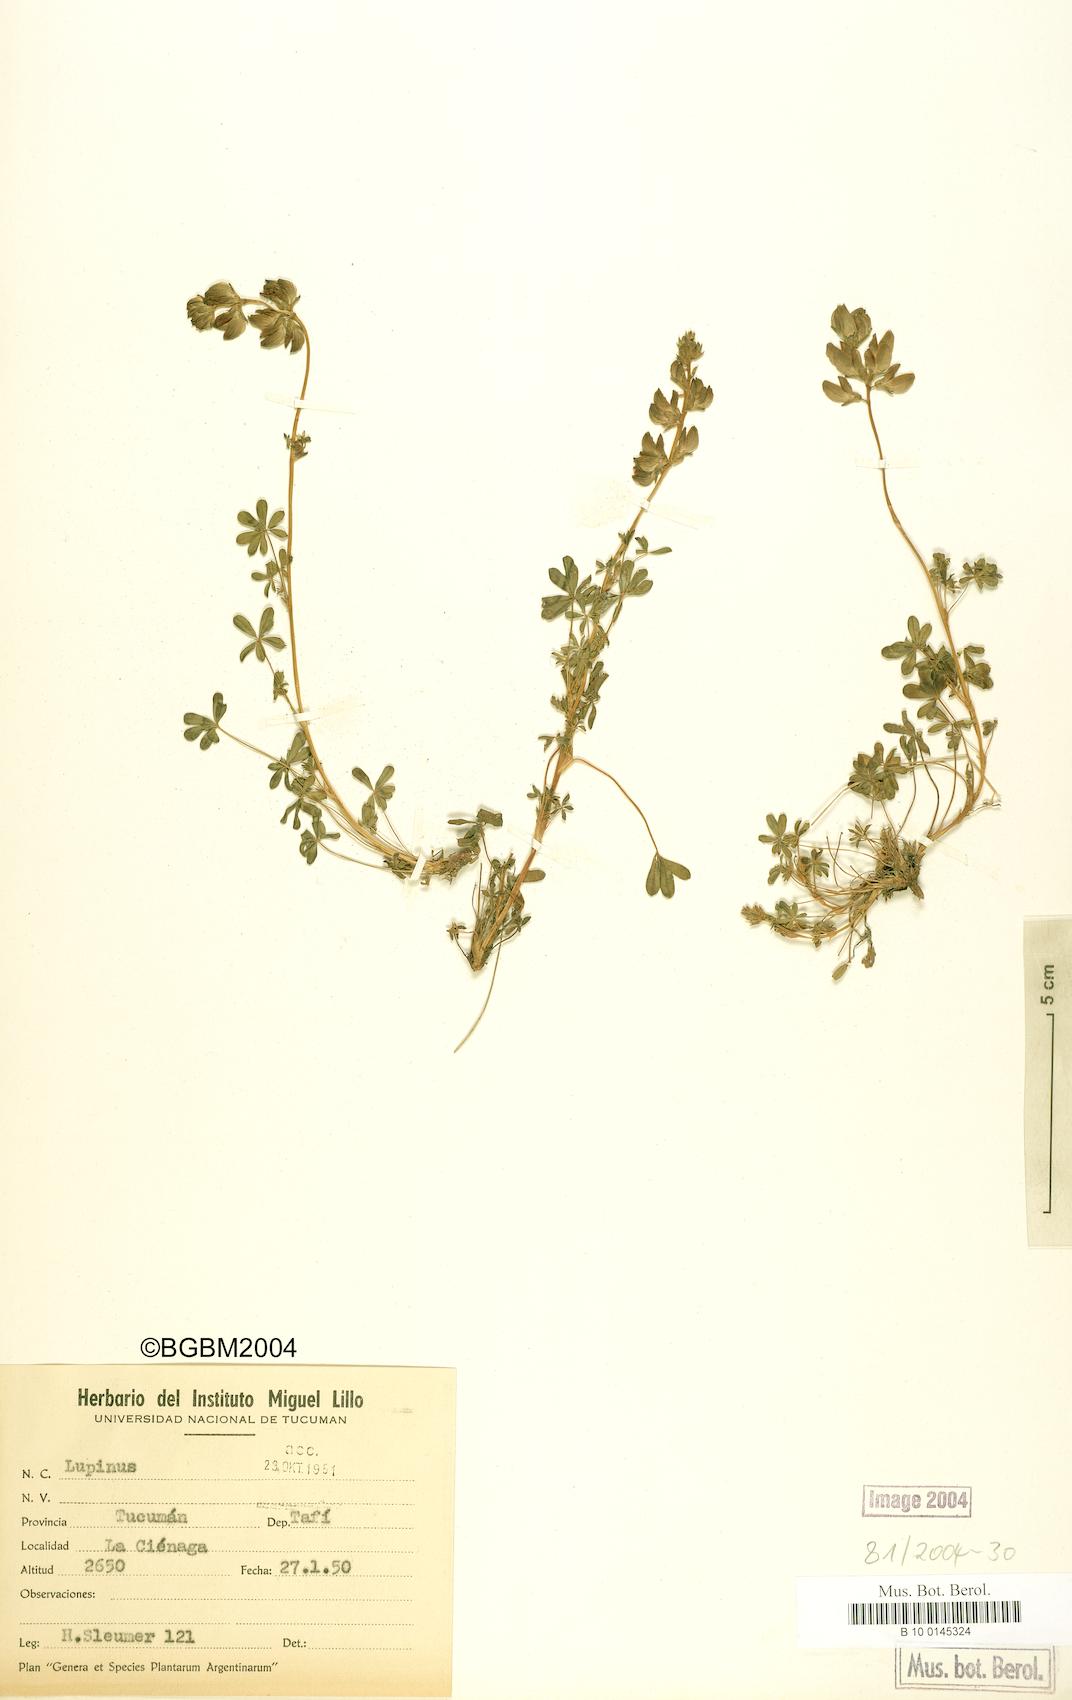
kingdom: Plantae
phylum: Tracheophyta
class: Magnoliopsida
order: Fabales
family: Fabaceae
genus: Lupinus
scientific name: Lupinus
